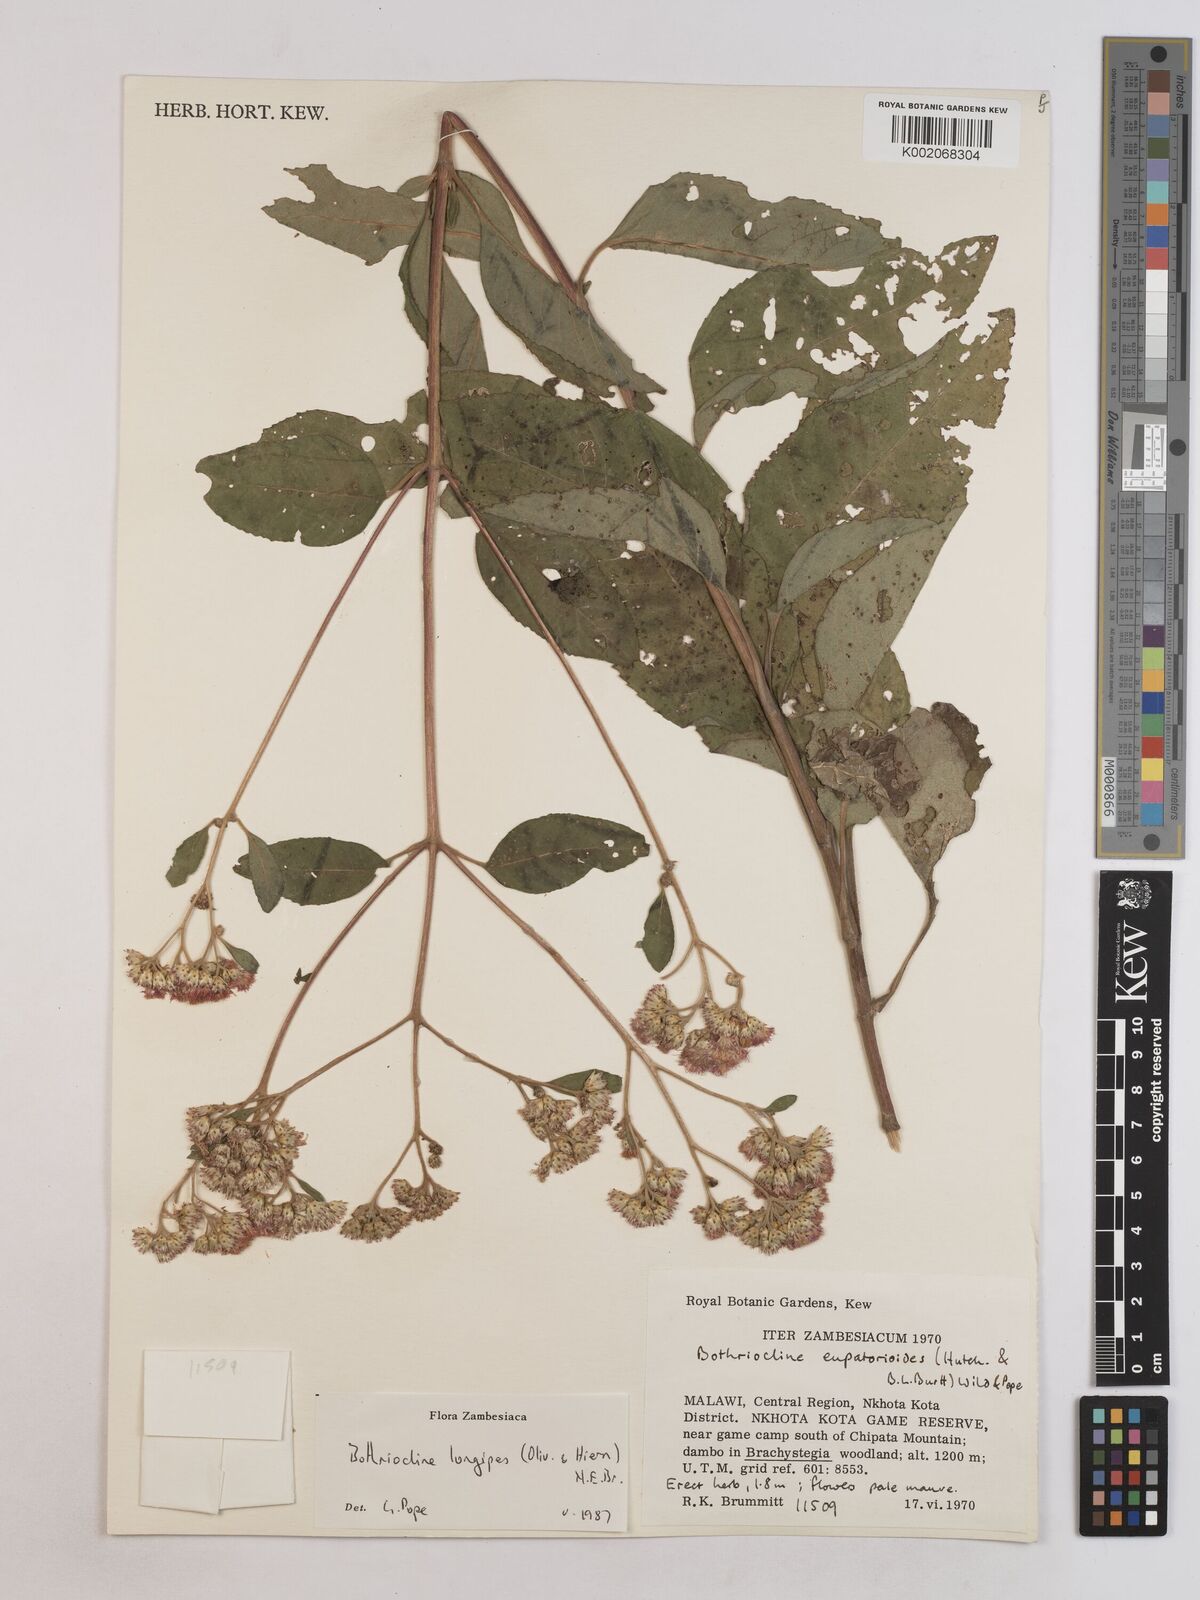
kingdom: Plantae
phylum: Tracheophyta
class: Magnoliopsida
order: Asterales
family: Asteraceae
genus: Bothriocline
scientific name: Bothriocline longipes
